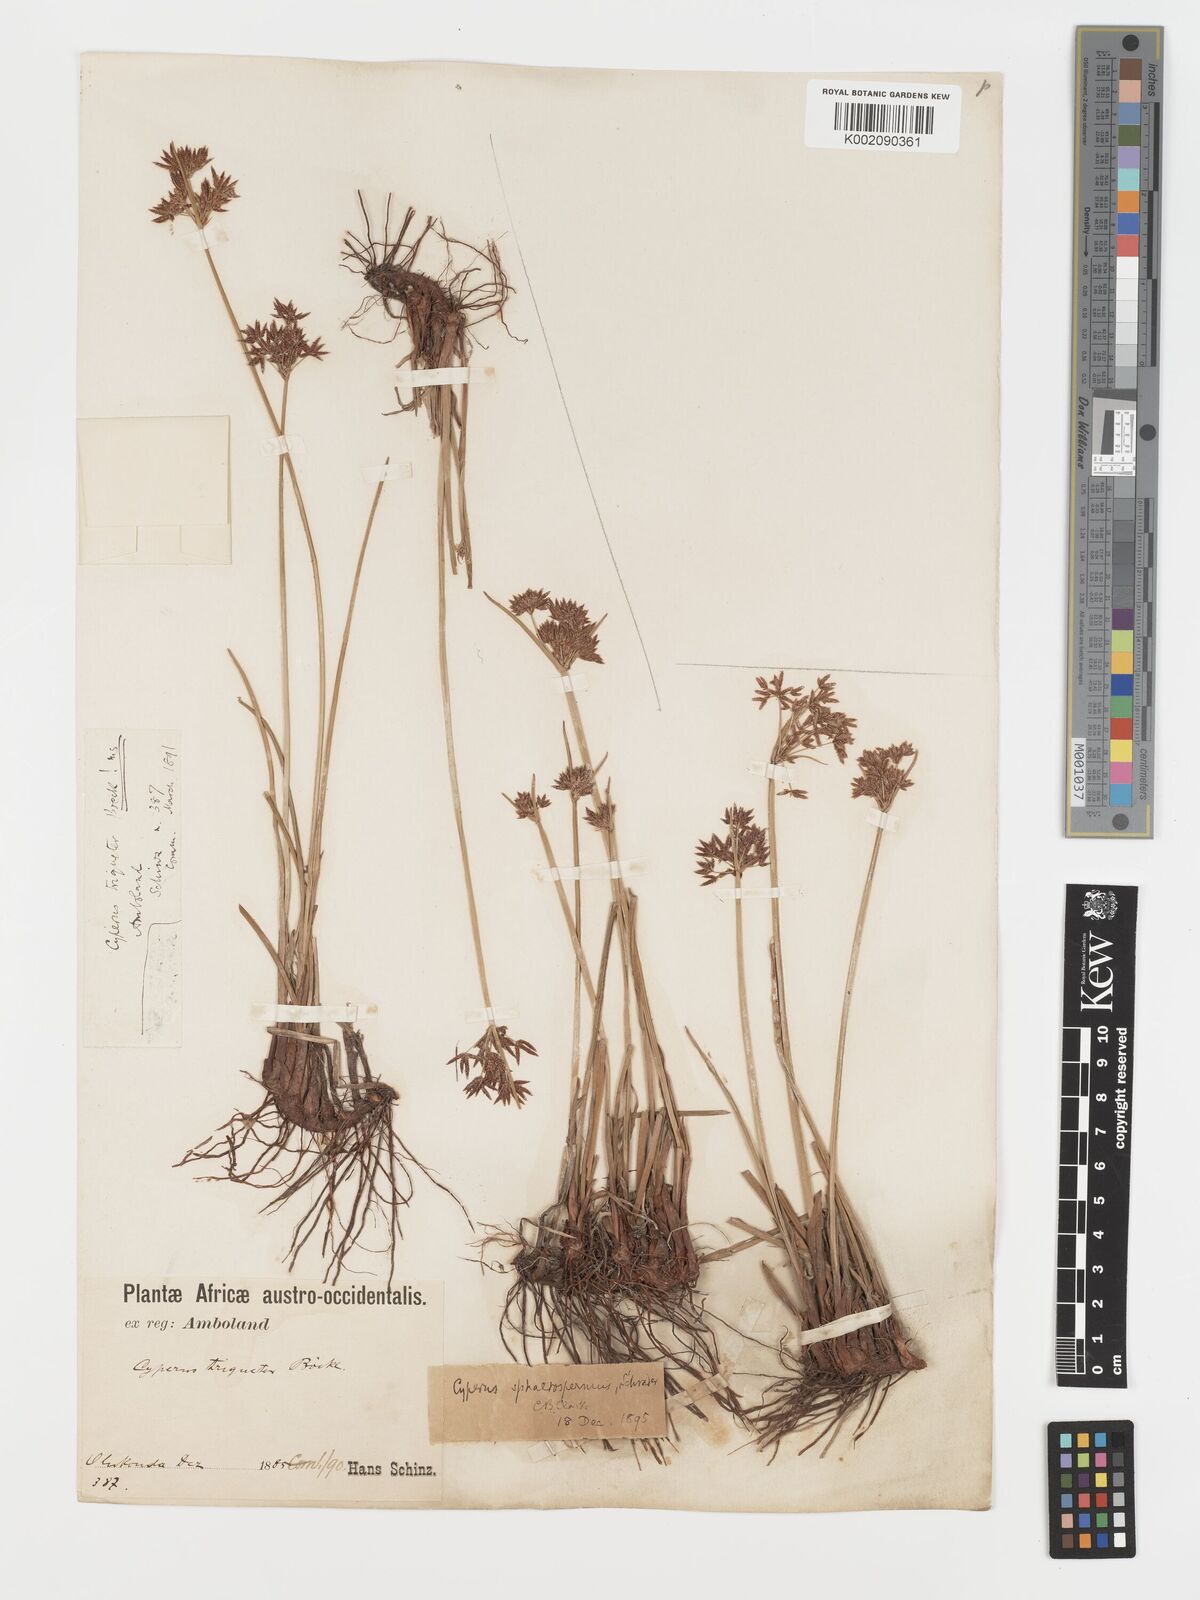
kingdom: Plantae
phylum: Tracheophyta
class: Liliopsida
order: Poales
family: Cyperaceae
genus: Cyperus
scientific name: Cyperus haspan
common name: Haspan flatsedge
